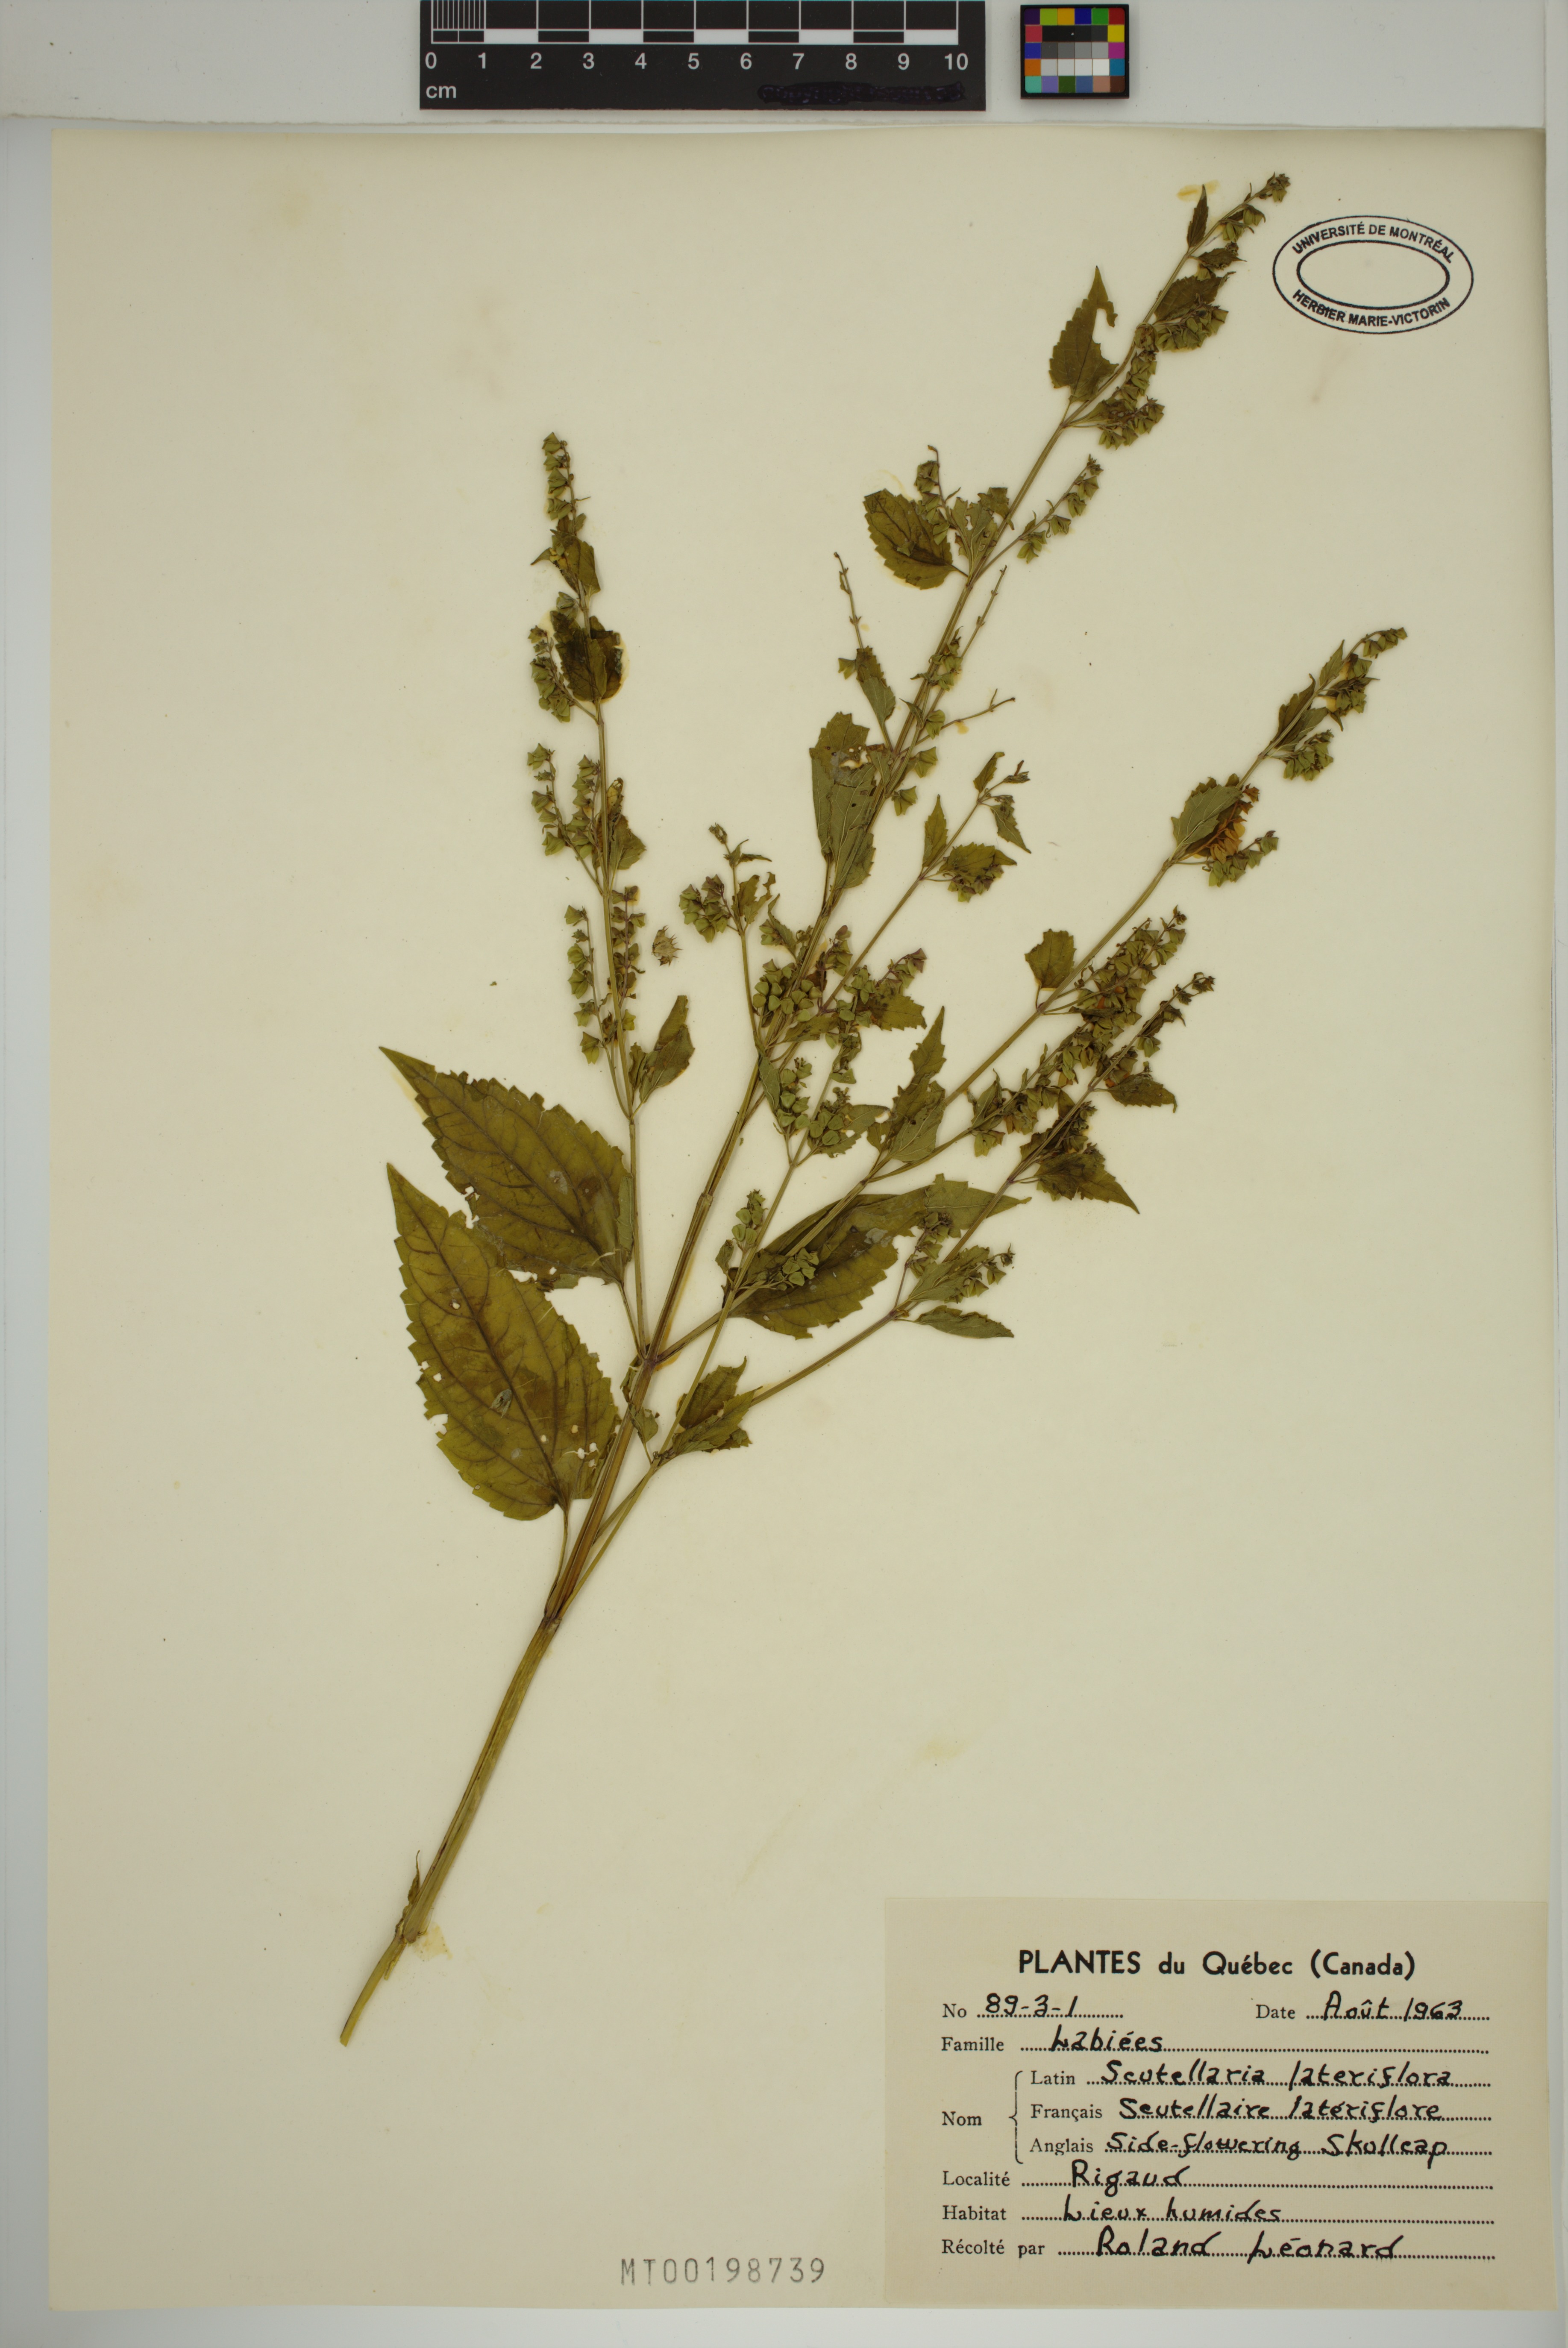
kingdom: Plantae
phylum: Tracheophyta
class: Magnoliopsida
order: Lamiales
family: Lamiaceae
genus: Scutellaria
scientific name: Scutellaria lateriflora
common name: Blue skullcap
